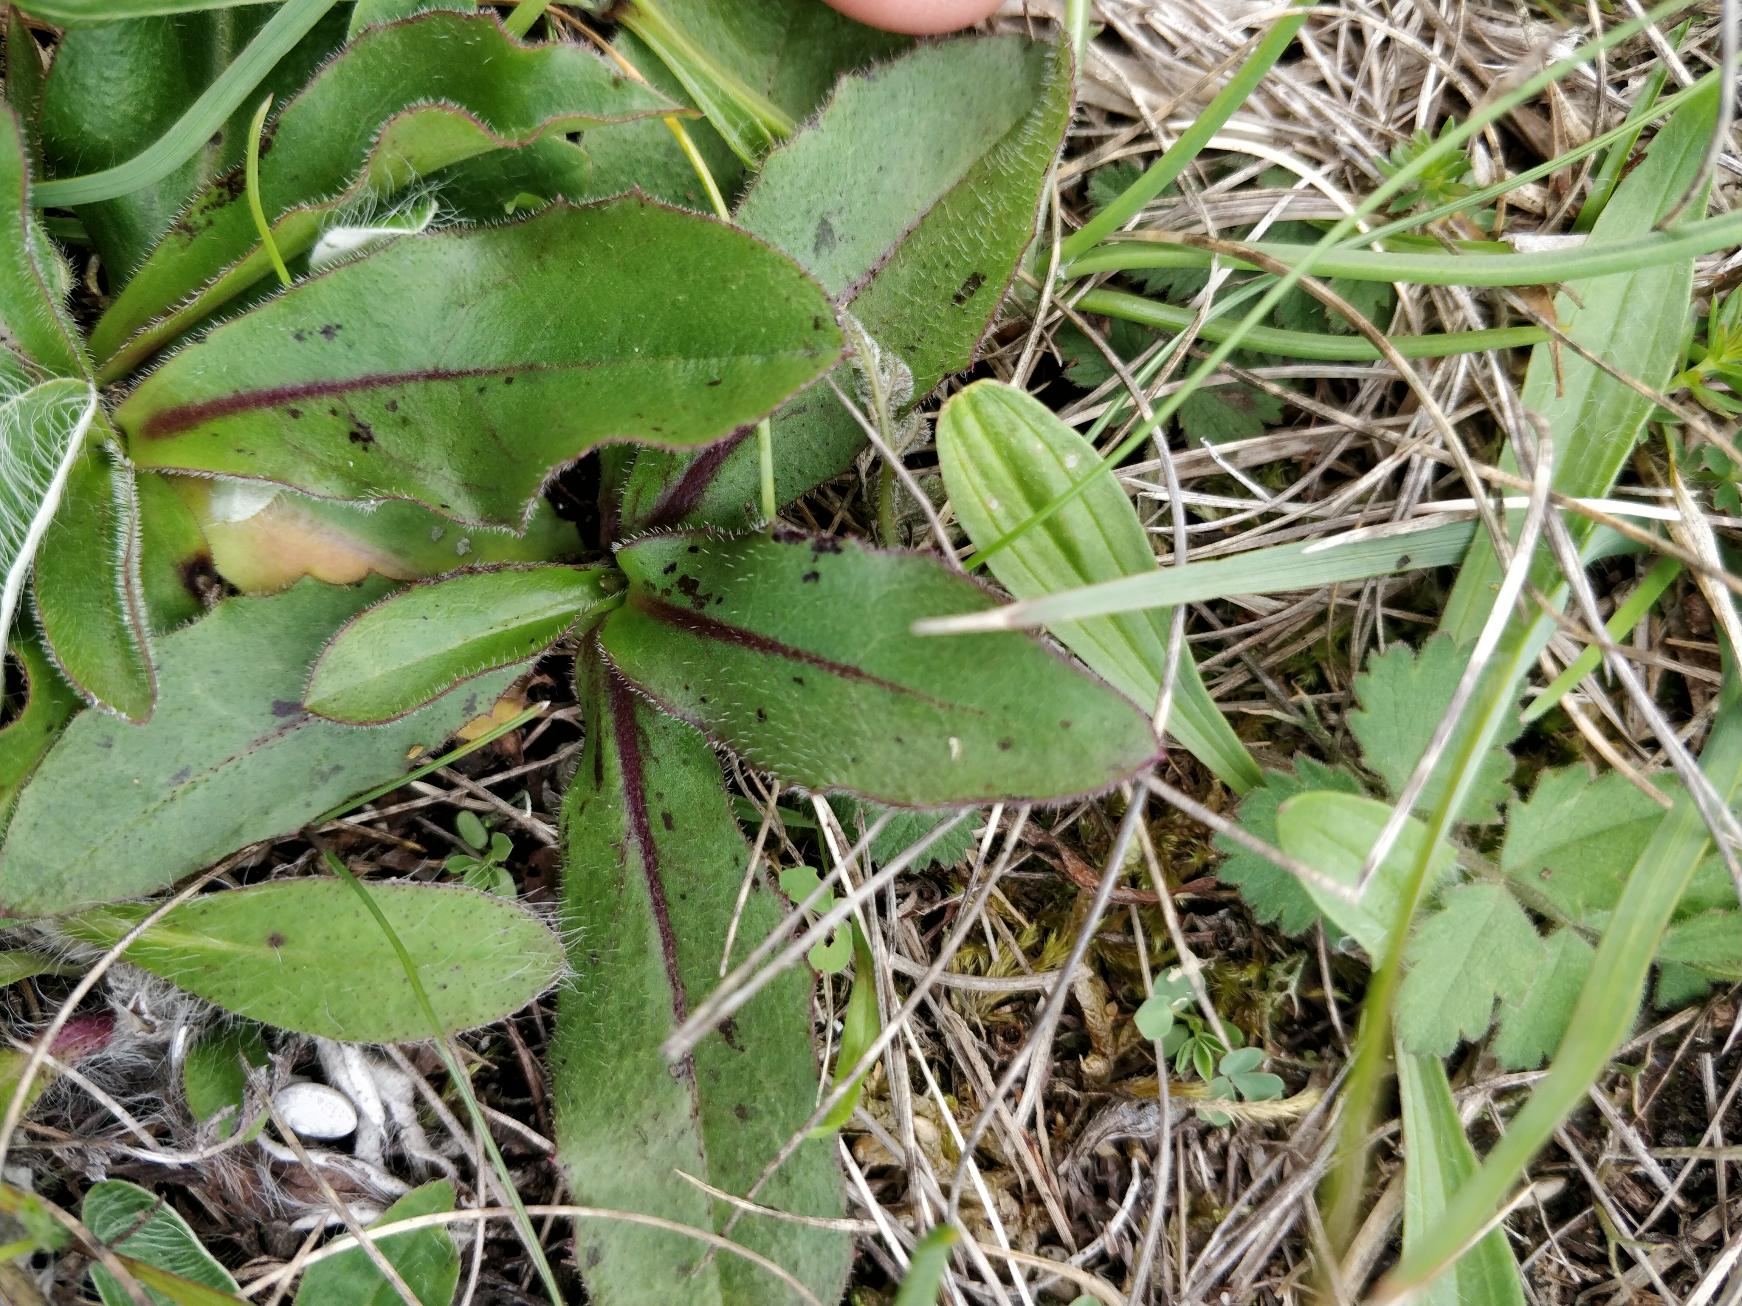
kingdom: Plantae
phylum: Tracheophyta
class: Magnoliopsida
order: Asterales
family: Asteraceae
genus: Trommsdorffia
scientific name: Trommsdorffia maculata
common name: Plettet kongepen
